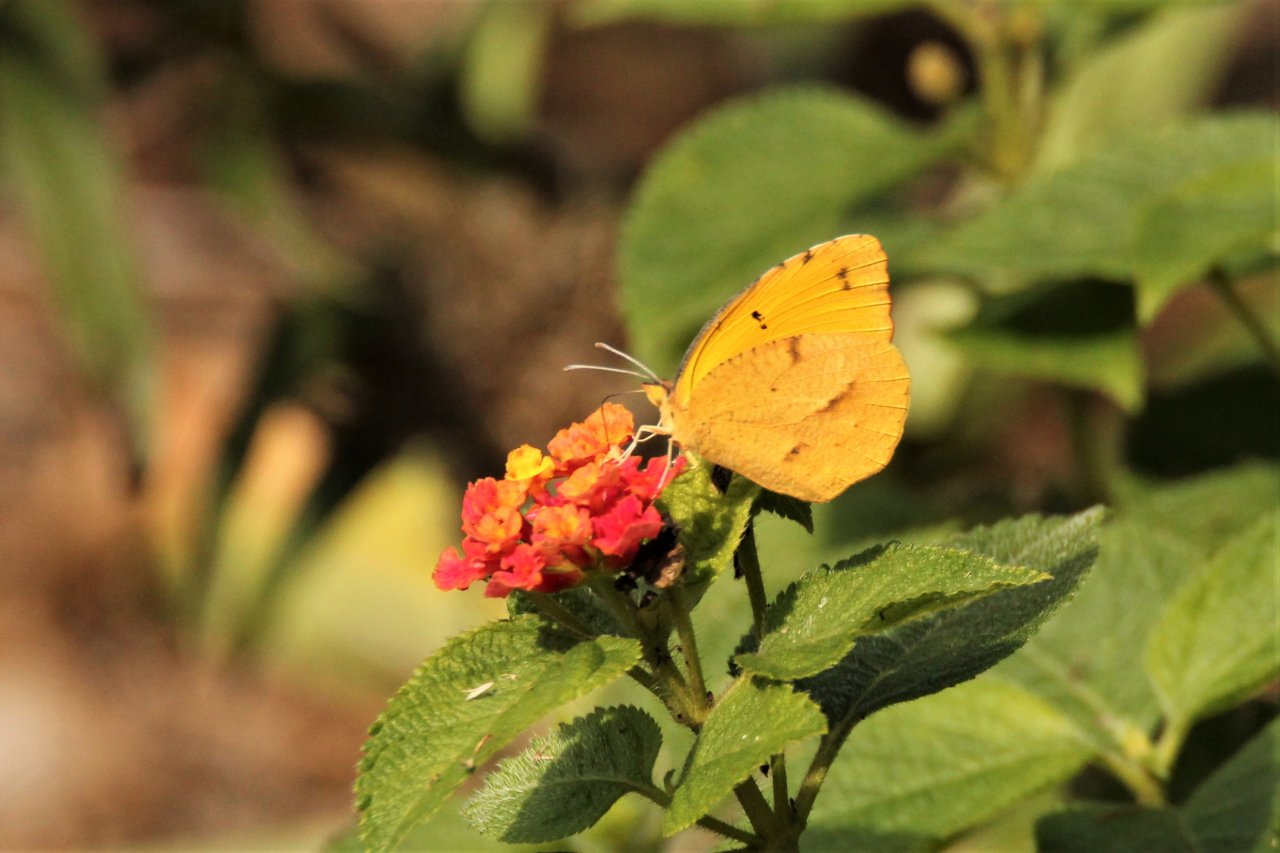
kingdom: Animalia
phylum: Arthropoda
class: Insecta
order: Lepidoptera
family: Pieridae
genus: Abaeis
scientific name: Abaeis nicippe
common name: Sleepy Orange
